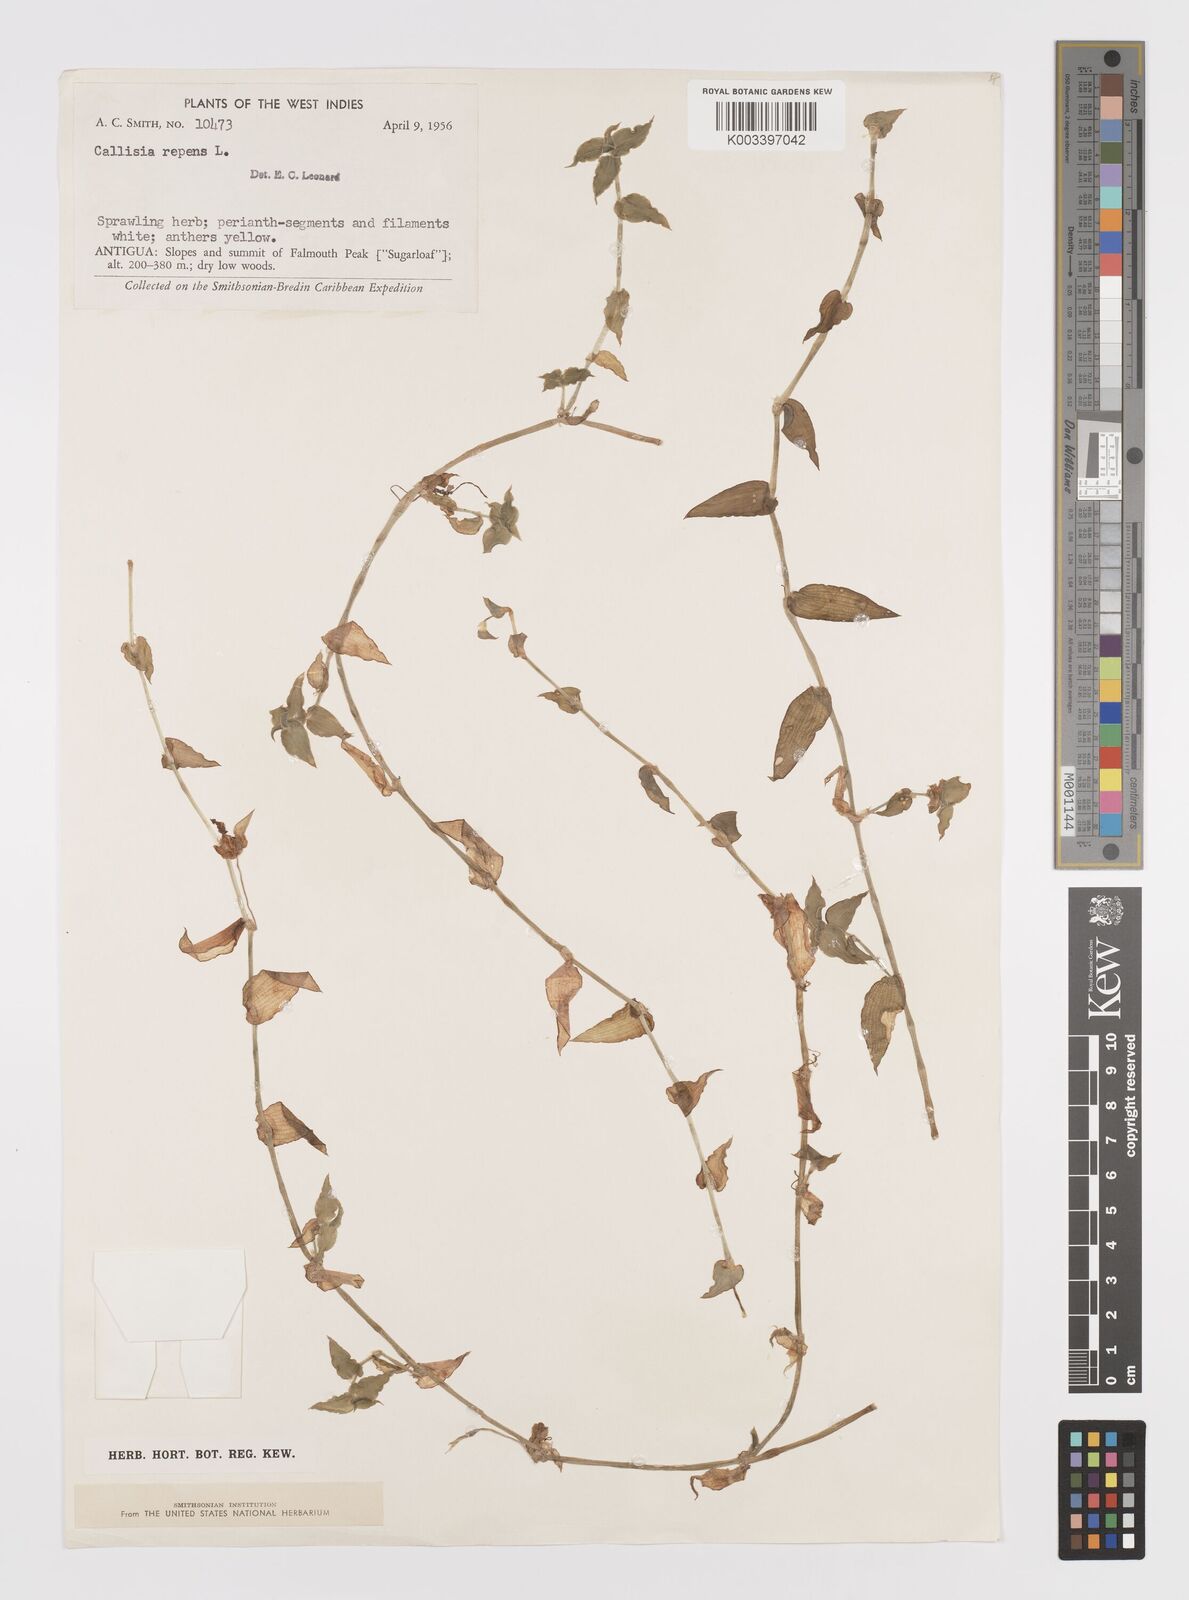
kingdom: Plantae
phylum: Tracheophyta
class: Liliopsida
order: Commelinales
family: Commelinaceae
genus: Callisia
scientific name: Callisia repens
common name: Creeping inchplant
